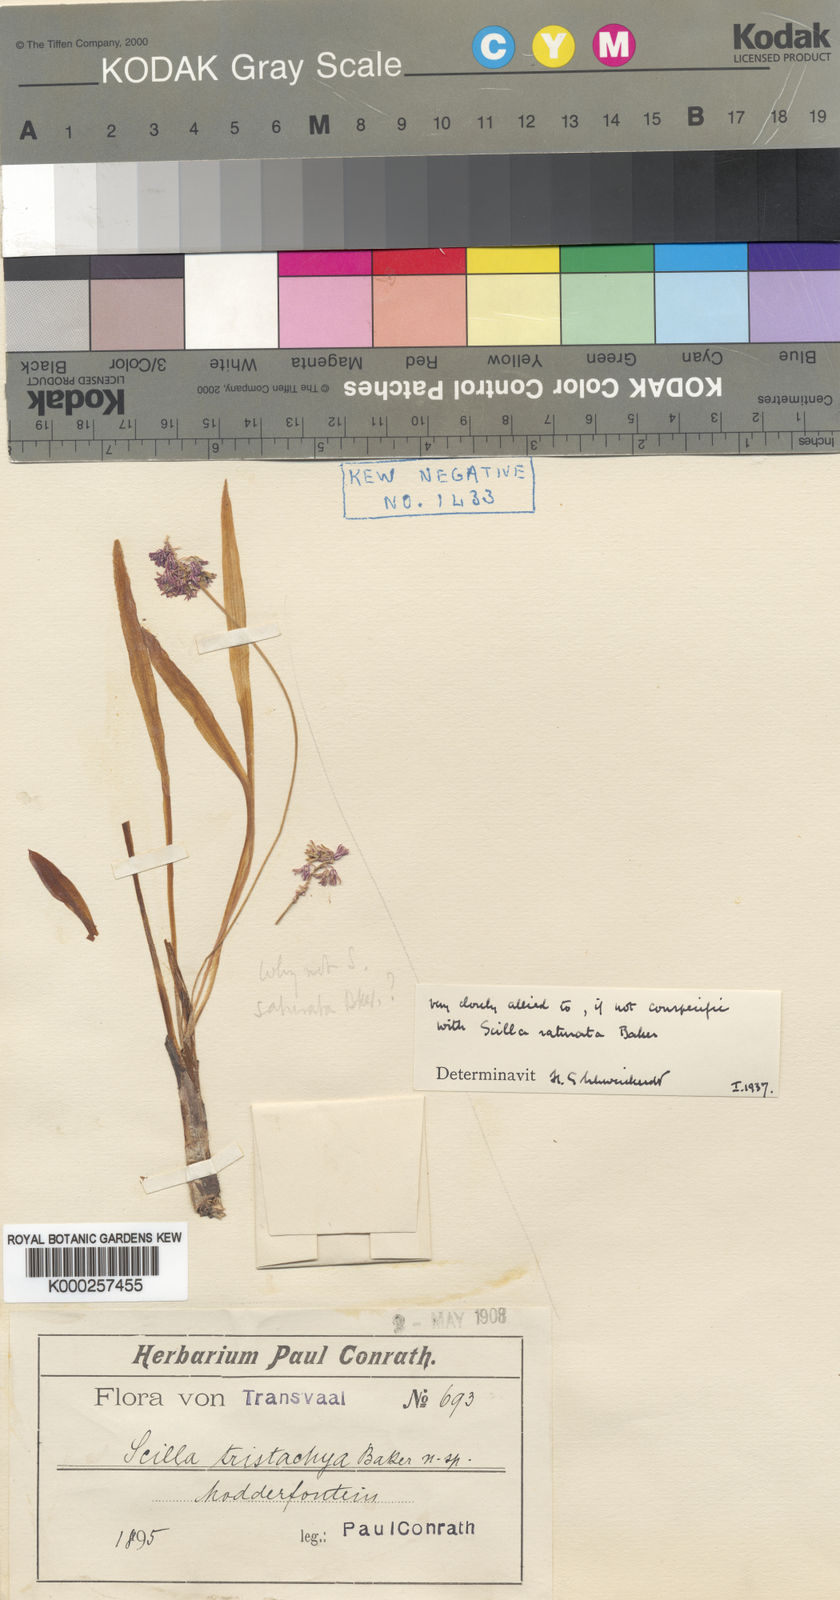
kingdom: Plantae
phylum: Tracheophyta
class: Liliopsida
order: Asparagales
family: Asparagaceae
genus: Ledebouria
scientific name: Ledebouria cooperi
